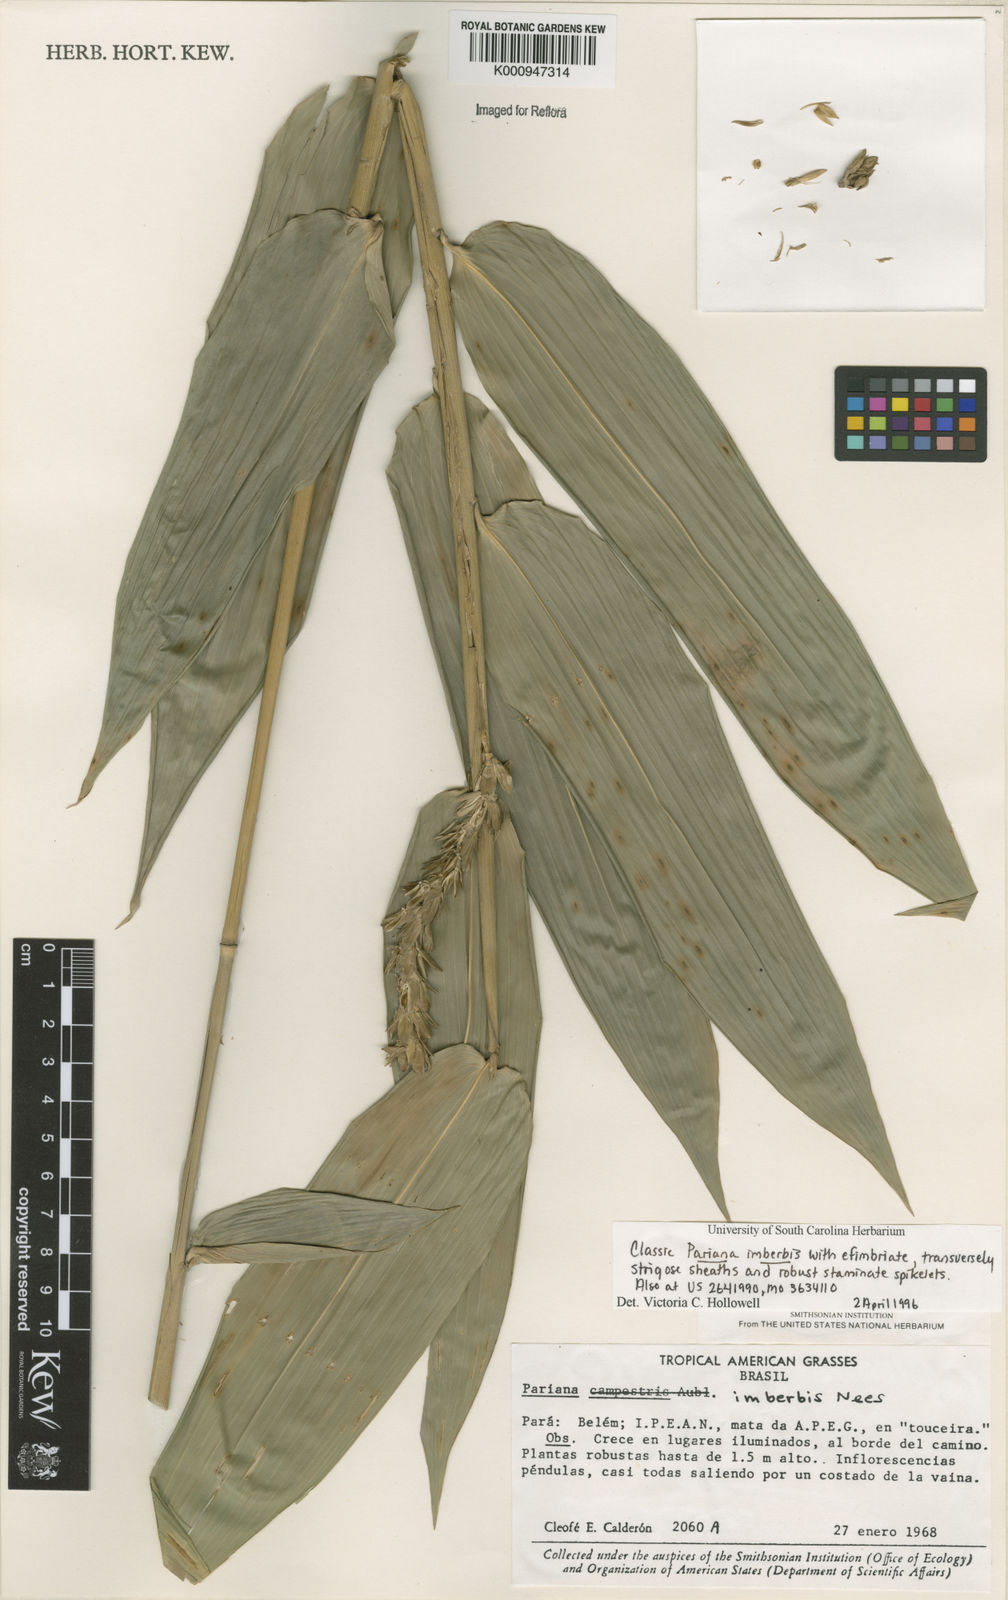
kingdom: Plantae
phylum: Tracheophyta
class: Liliopsida
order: Poales
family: Poaceae
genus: Pariana
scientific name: Pariana imberbis
